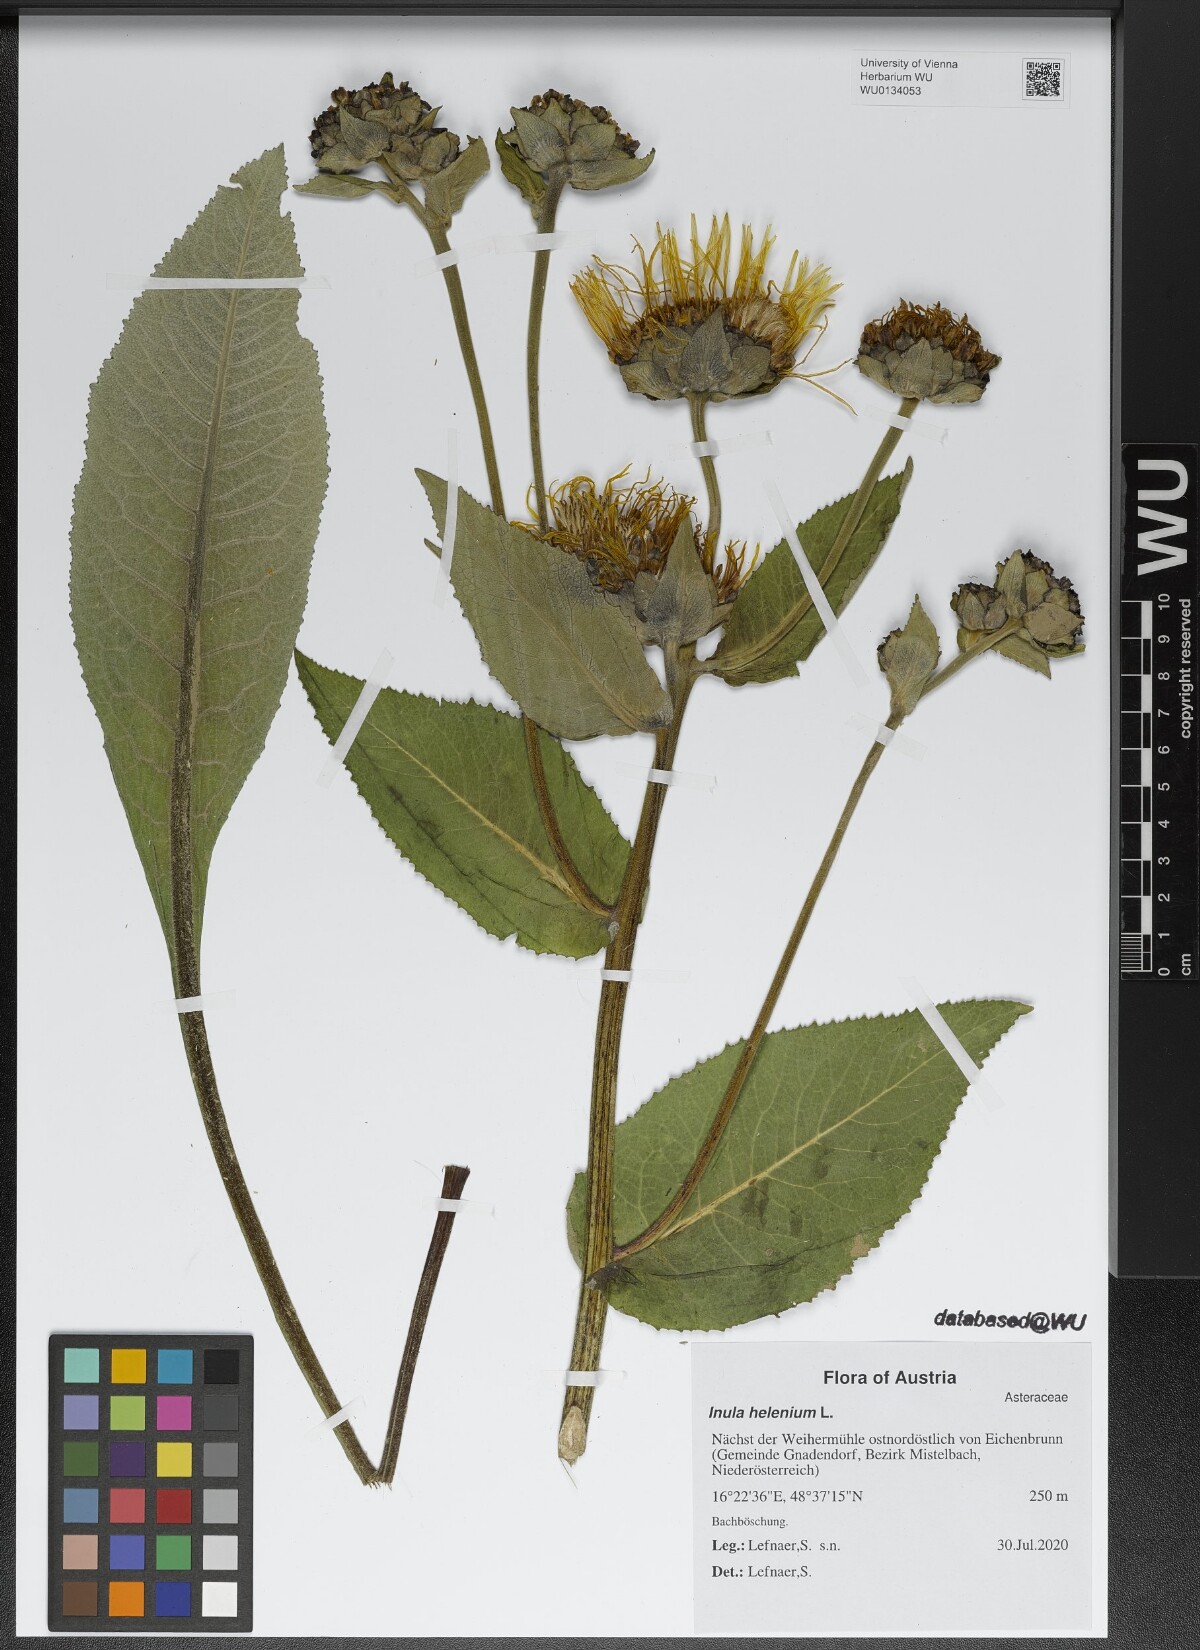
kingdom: Plantae
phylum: Tracheophyta
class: Magnoliopsida
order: Asterales
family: Asteraceae
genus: Inula
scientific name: Inula helenium
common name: Elecampane
